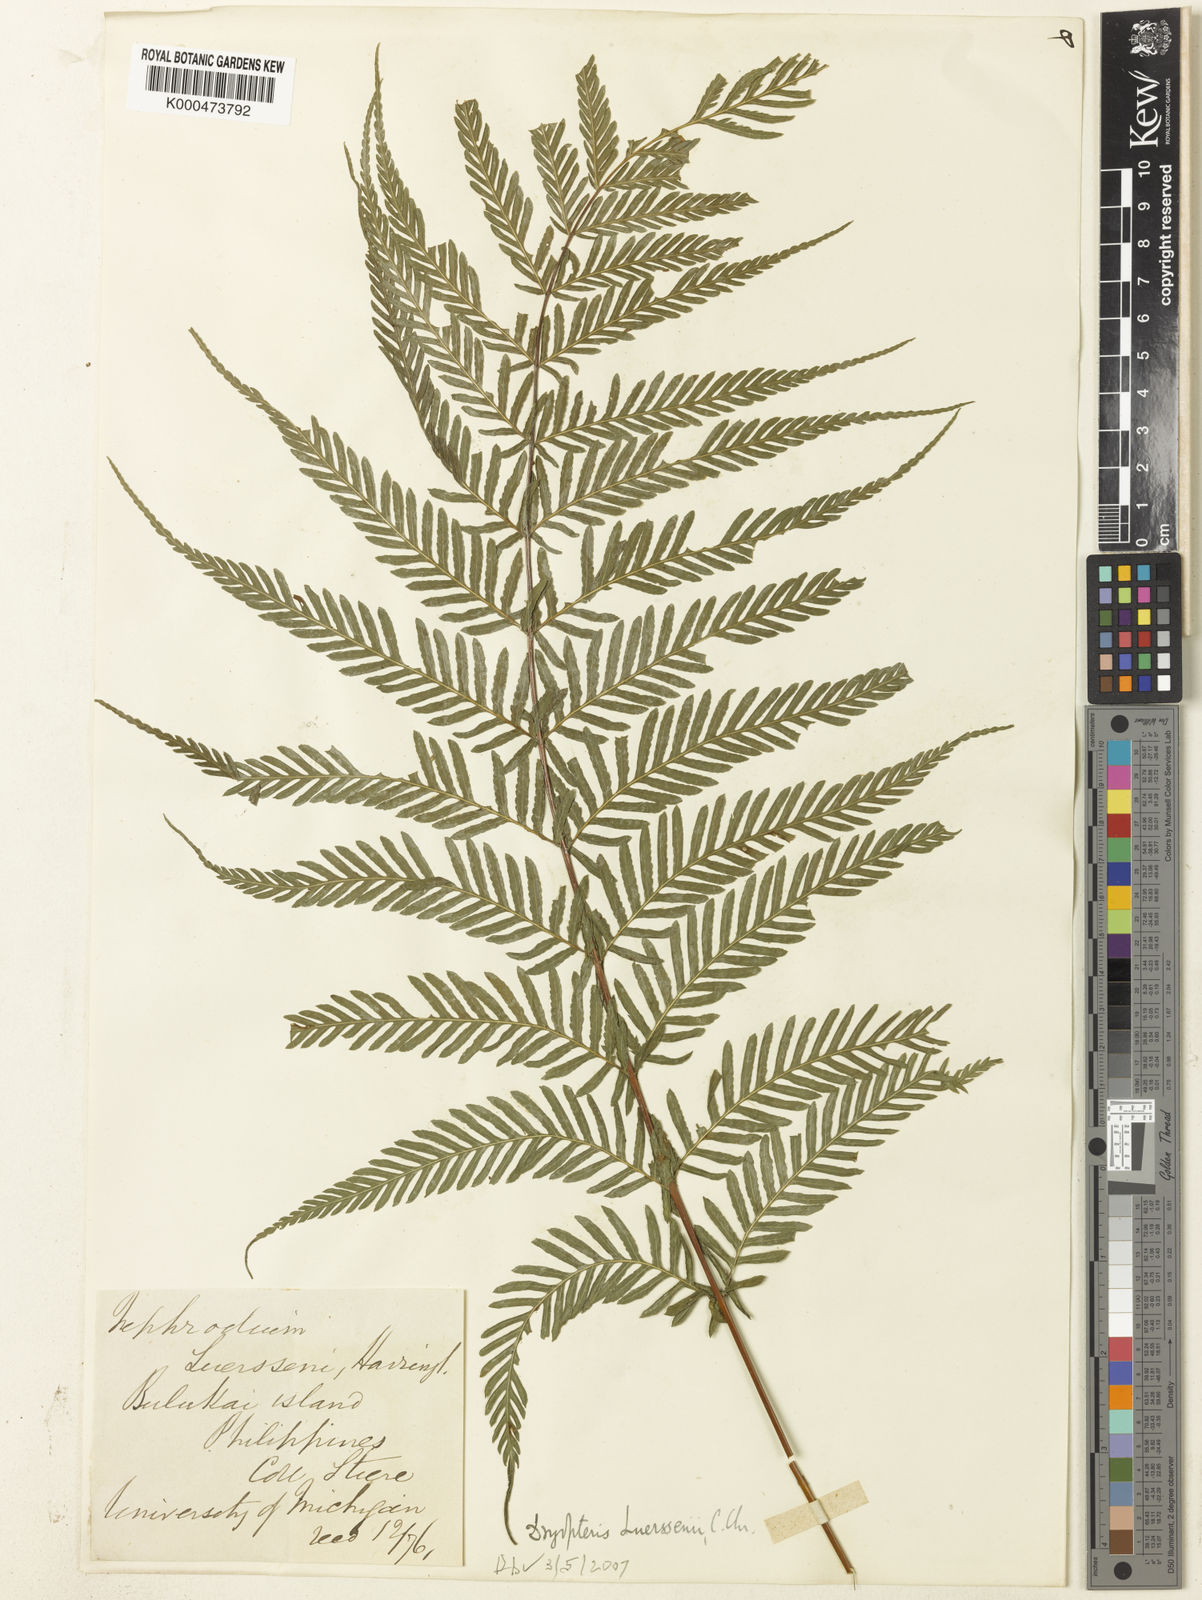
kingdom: Plantae
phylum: Tracheophyta
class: Polypodiopsida
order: Polypodiales
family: Thelypteridaceae
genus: Plesioneuron
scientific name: Plesioneuron ligulatum
